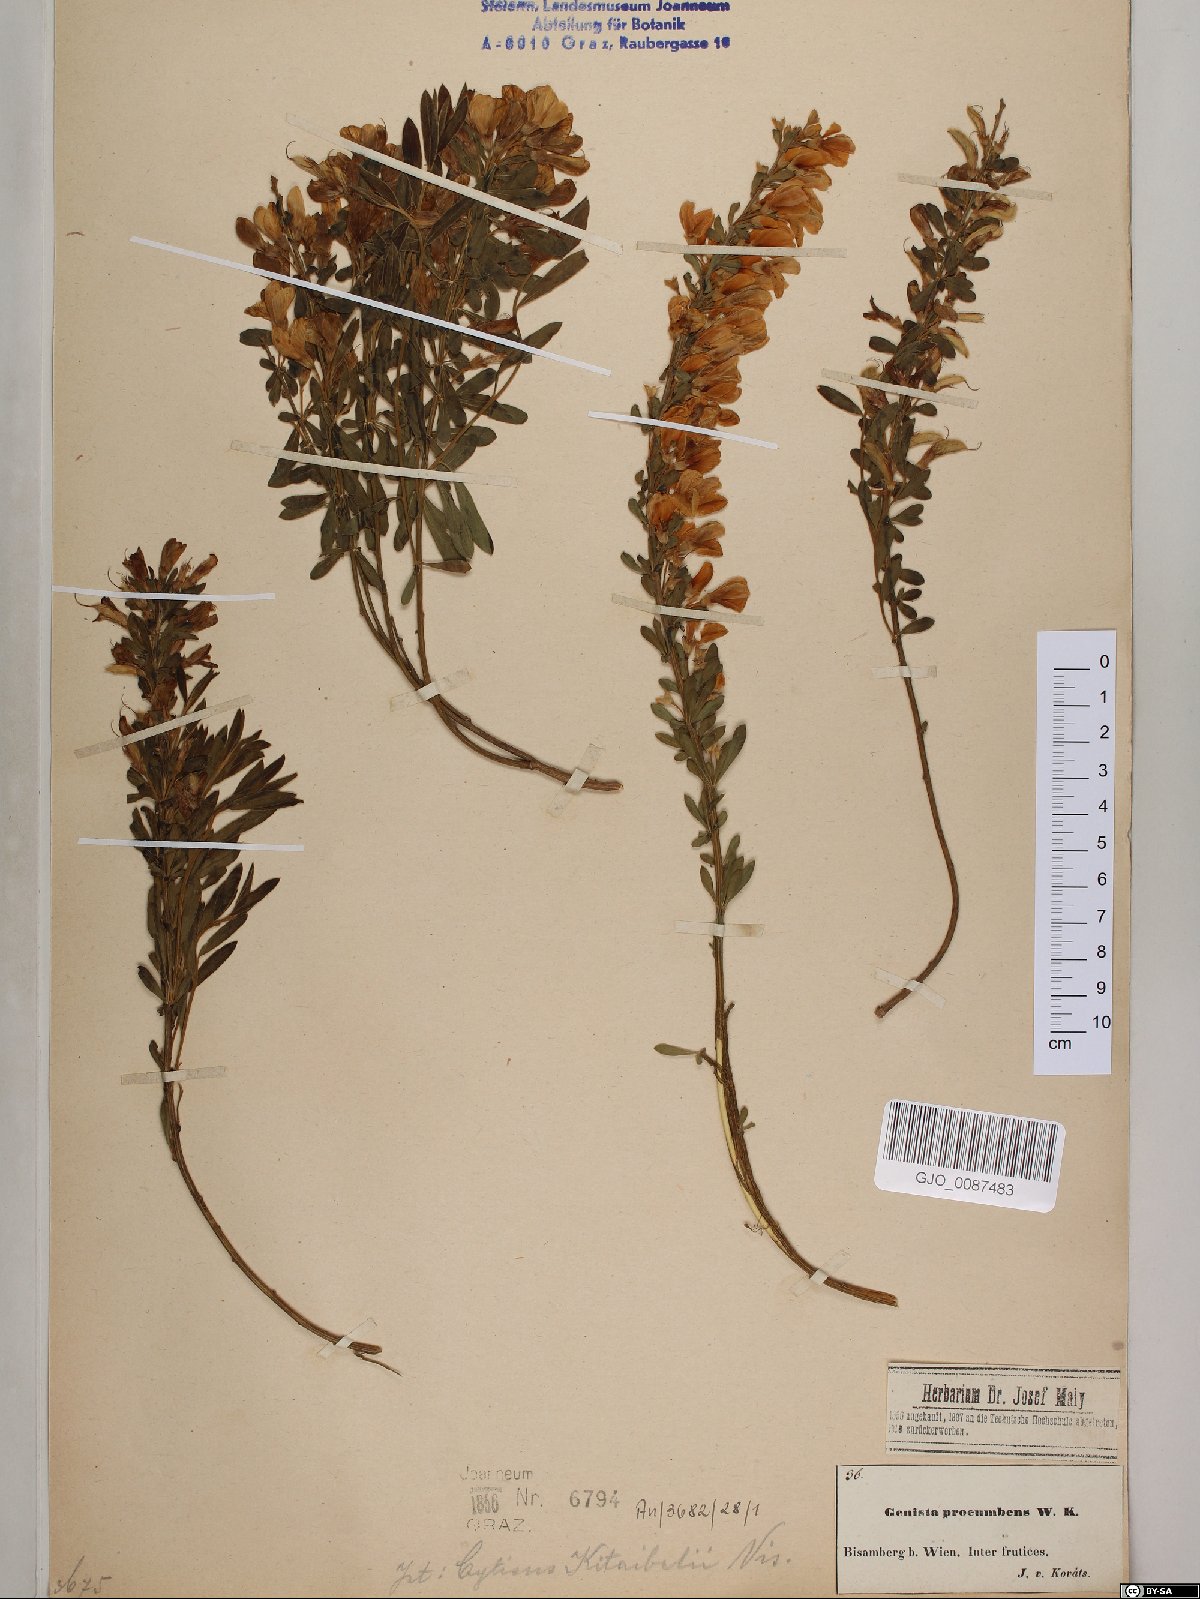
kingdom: Plantae
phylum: Tracheophyta
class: Magnoliopsida
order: Fabales
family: Fabaceae
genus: Cytisus
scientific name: Cytisus procumbens
